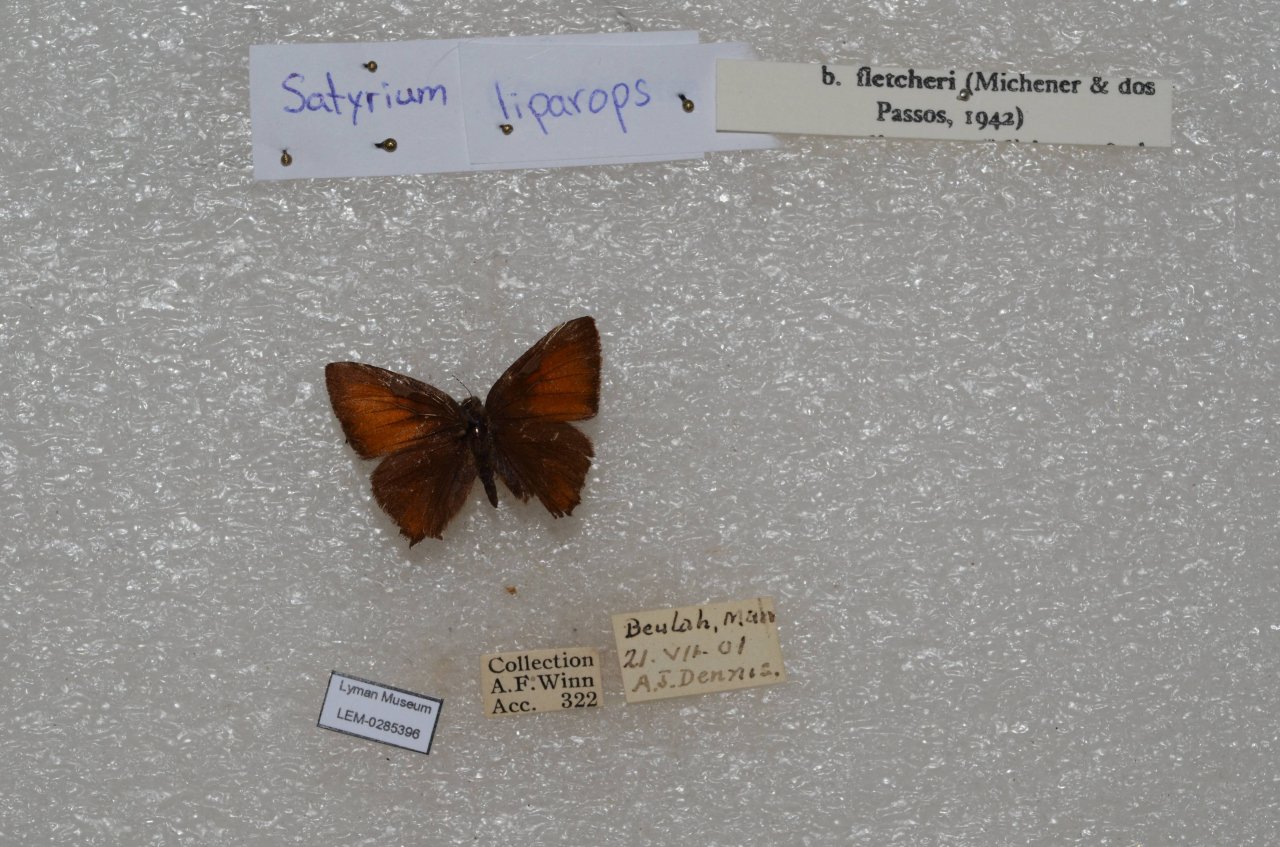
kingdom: Animalia
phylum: Arthropoda
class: Insecta
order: Lepidoptera
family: Lycaenidae
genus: Satyrium
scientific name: Satyrium liparops
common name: Striped Hairstreak
